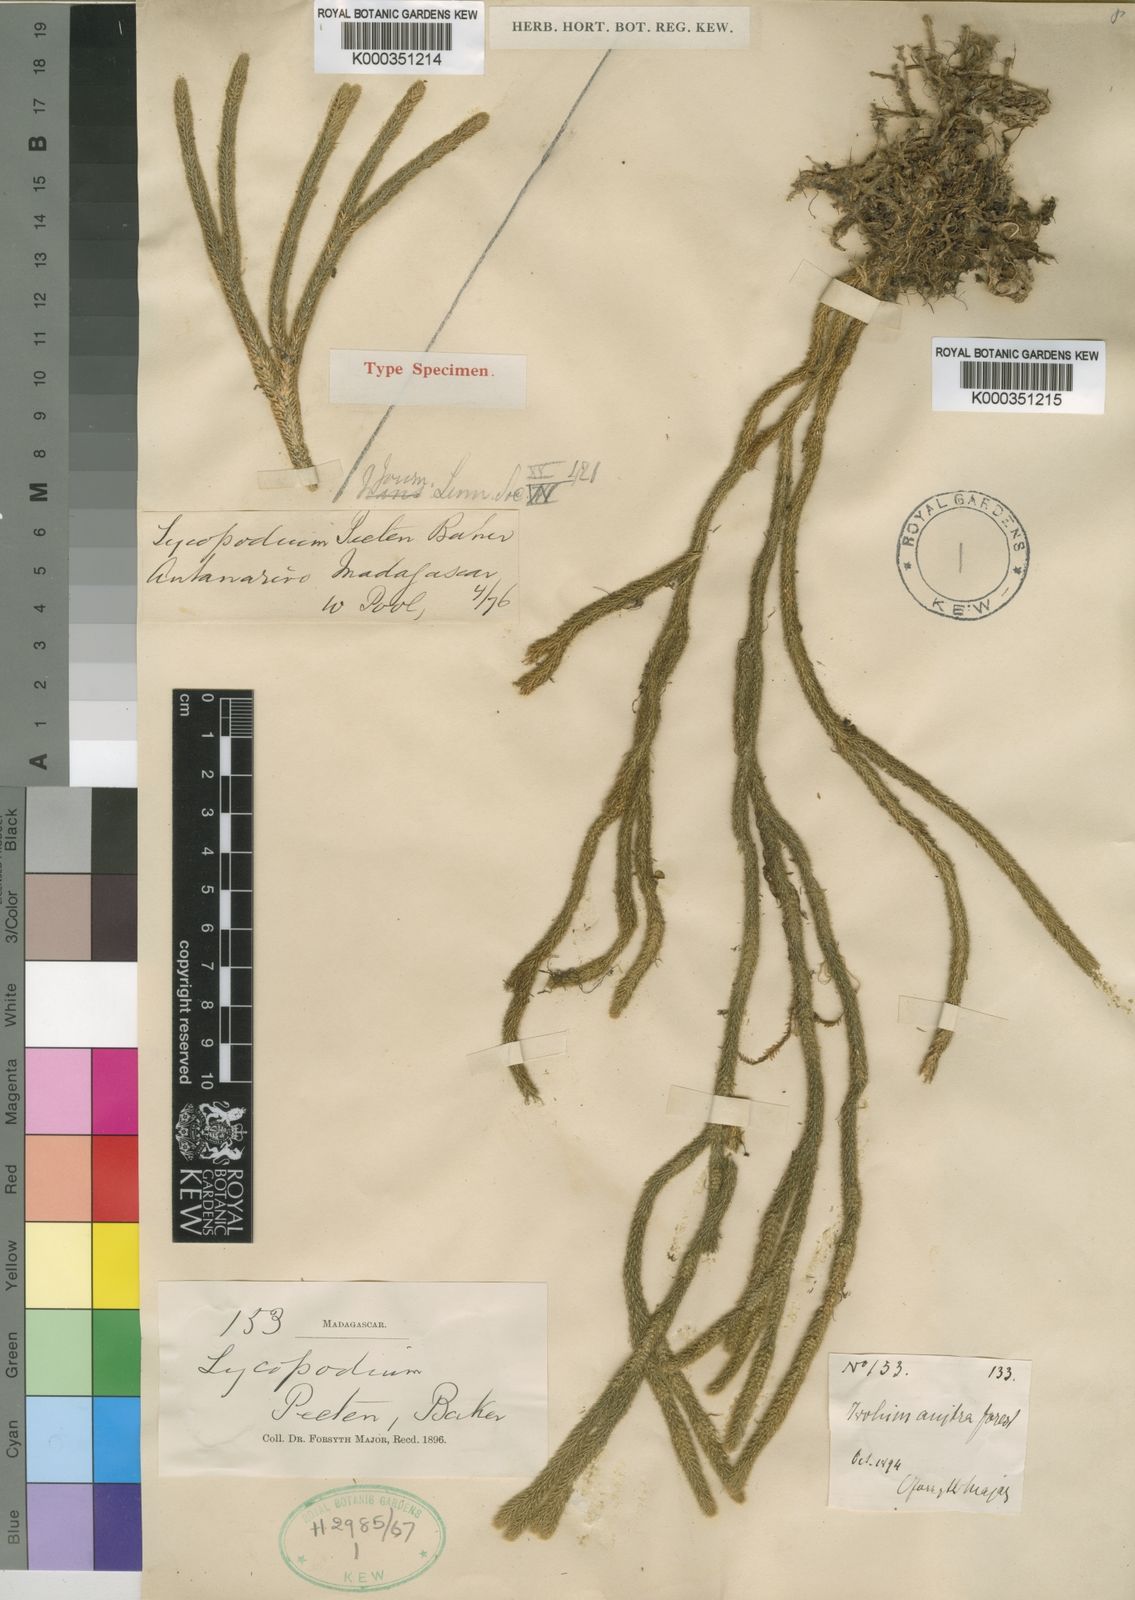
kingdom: Plantae
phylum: Tracheophyta
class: Lycopodiopsida
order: Lycopodiales
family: Lycopodiaceae
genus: Phlegmariurus
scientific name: Phlegmariurus pecten
